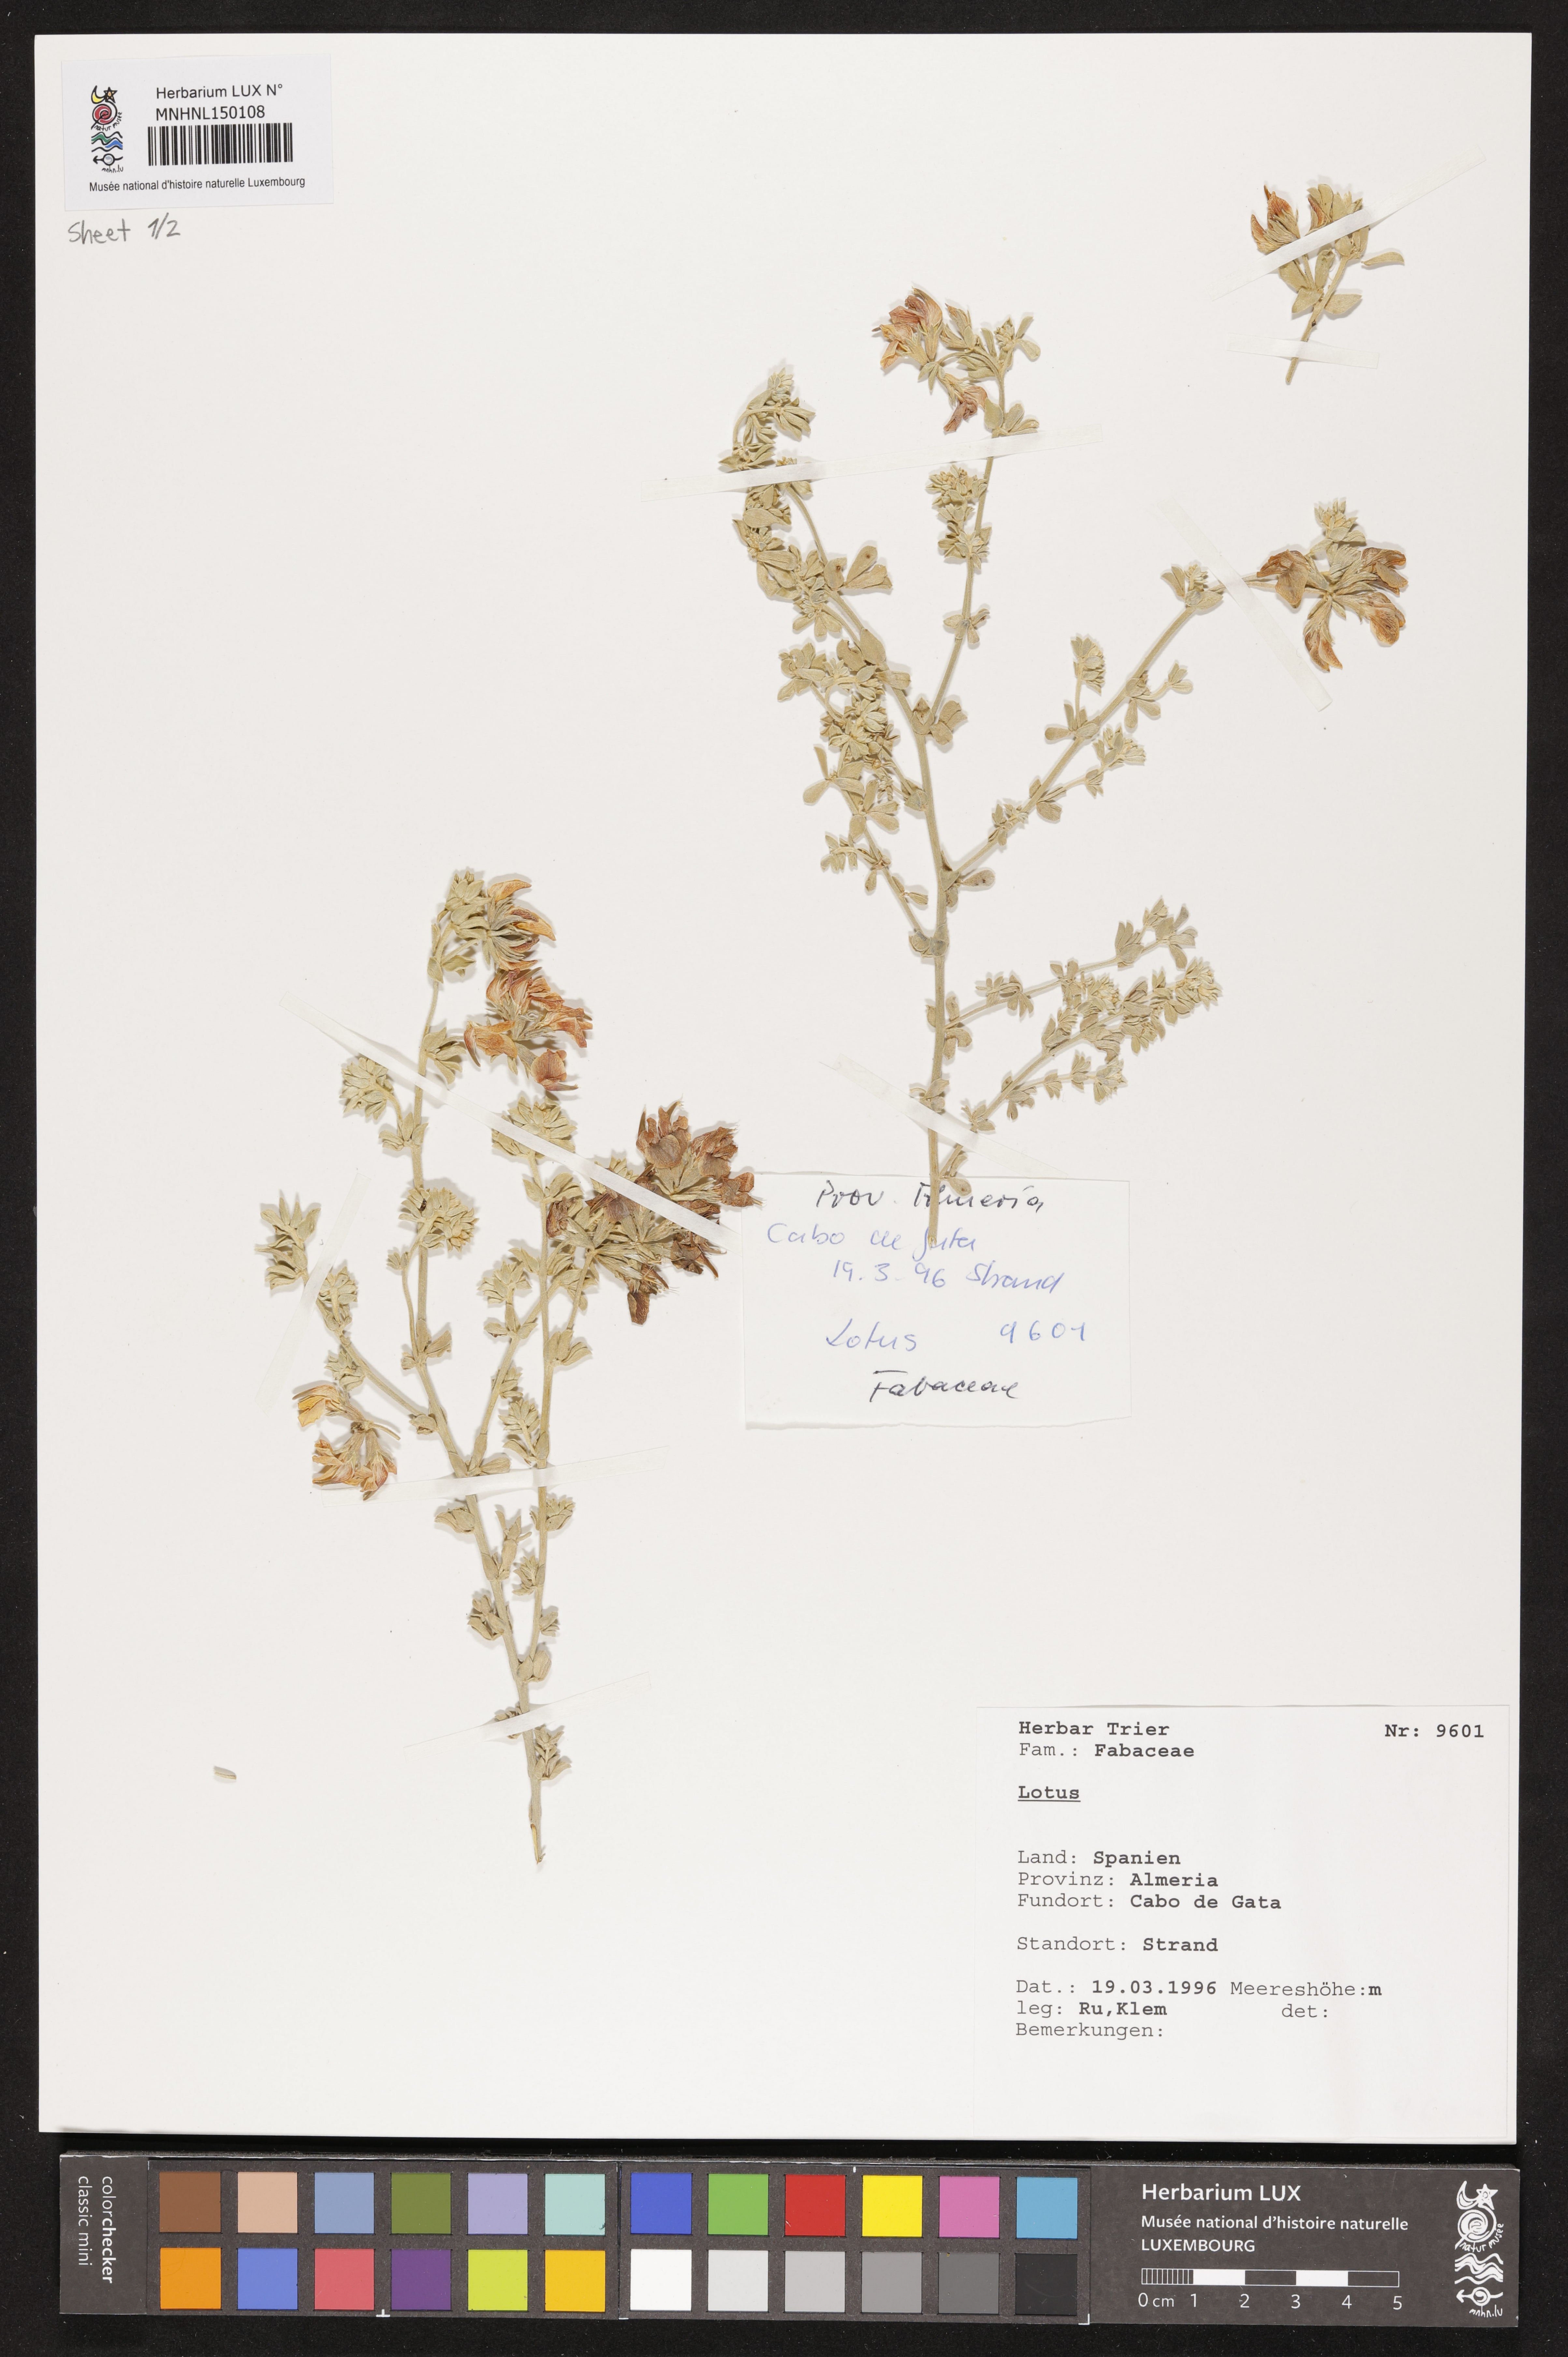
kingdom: Plantae
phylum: Tracheophyta
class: Magnoliopsida
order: Fabales
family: Fabaceae
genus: Lotus
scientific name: Lotus
